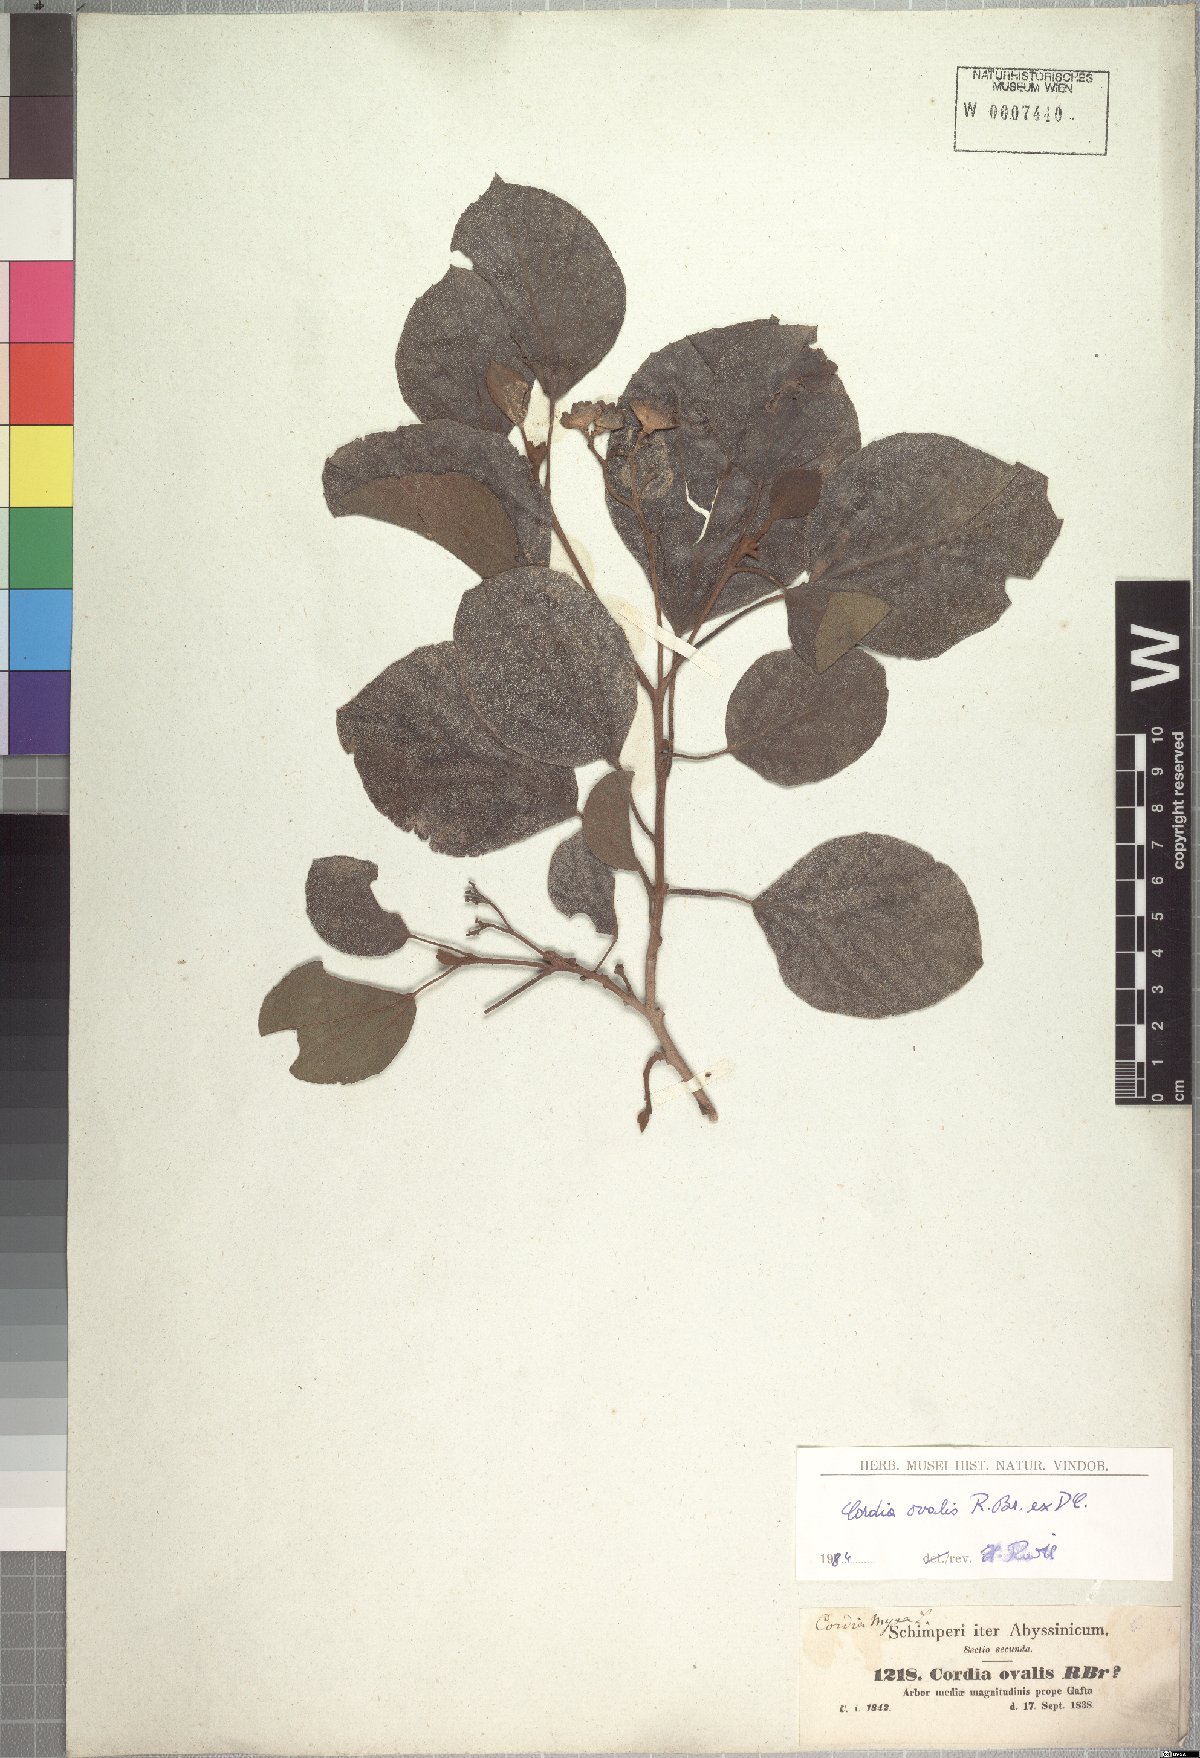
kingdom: Plantae
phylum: Tracheophyta
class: Magnoliopsida
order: Boraginales
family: Cordiaceae
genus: Cordia
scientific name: Cordia monoica
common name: Snot berry
